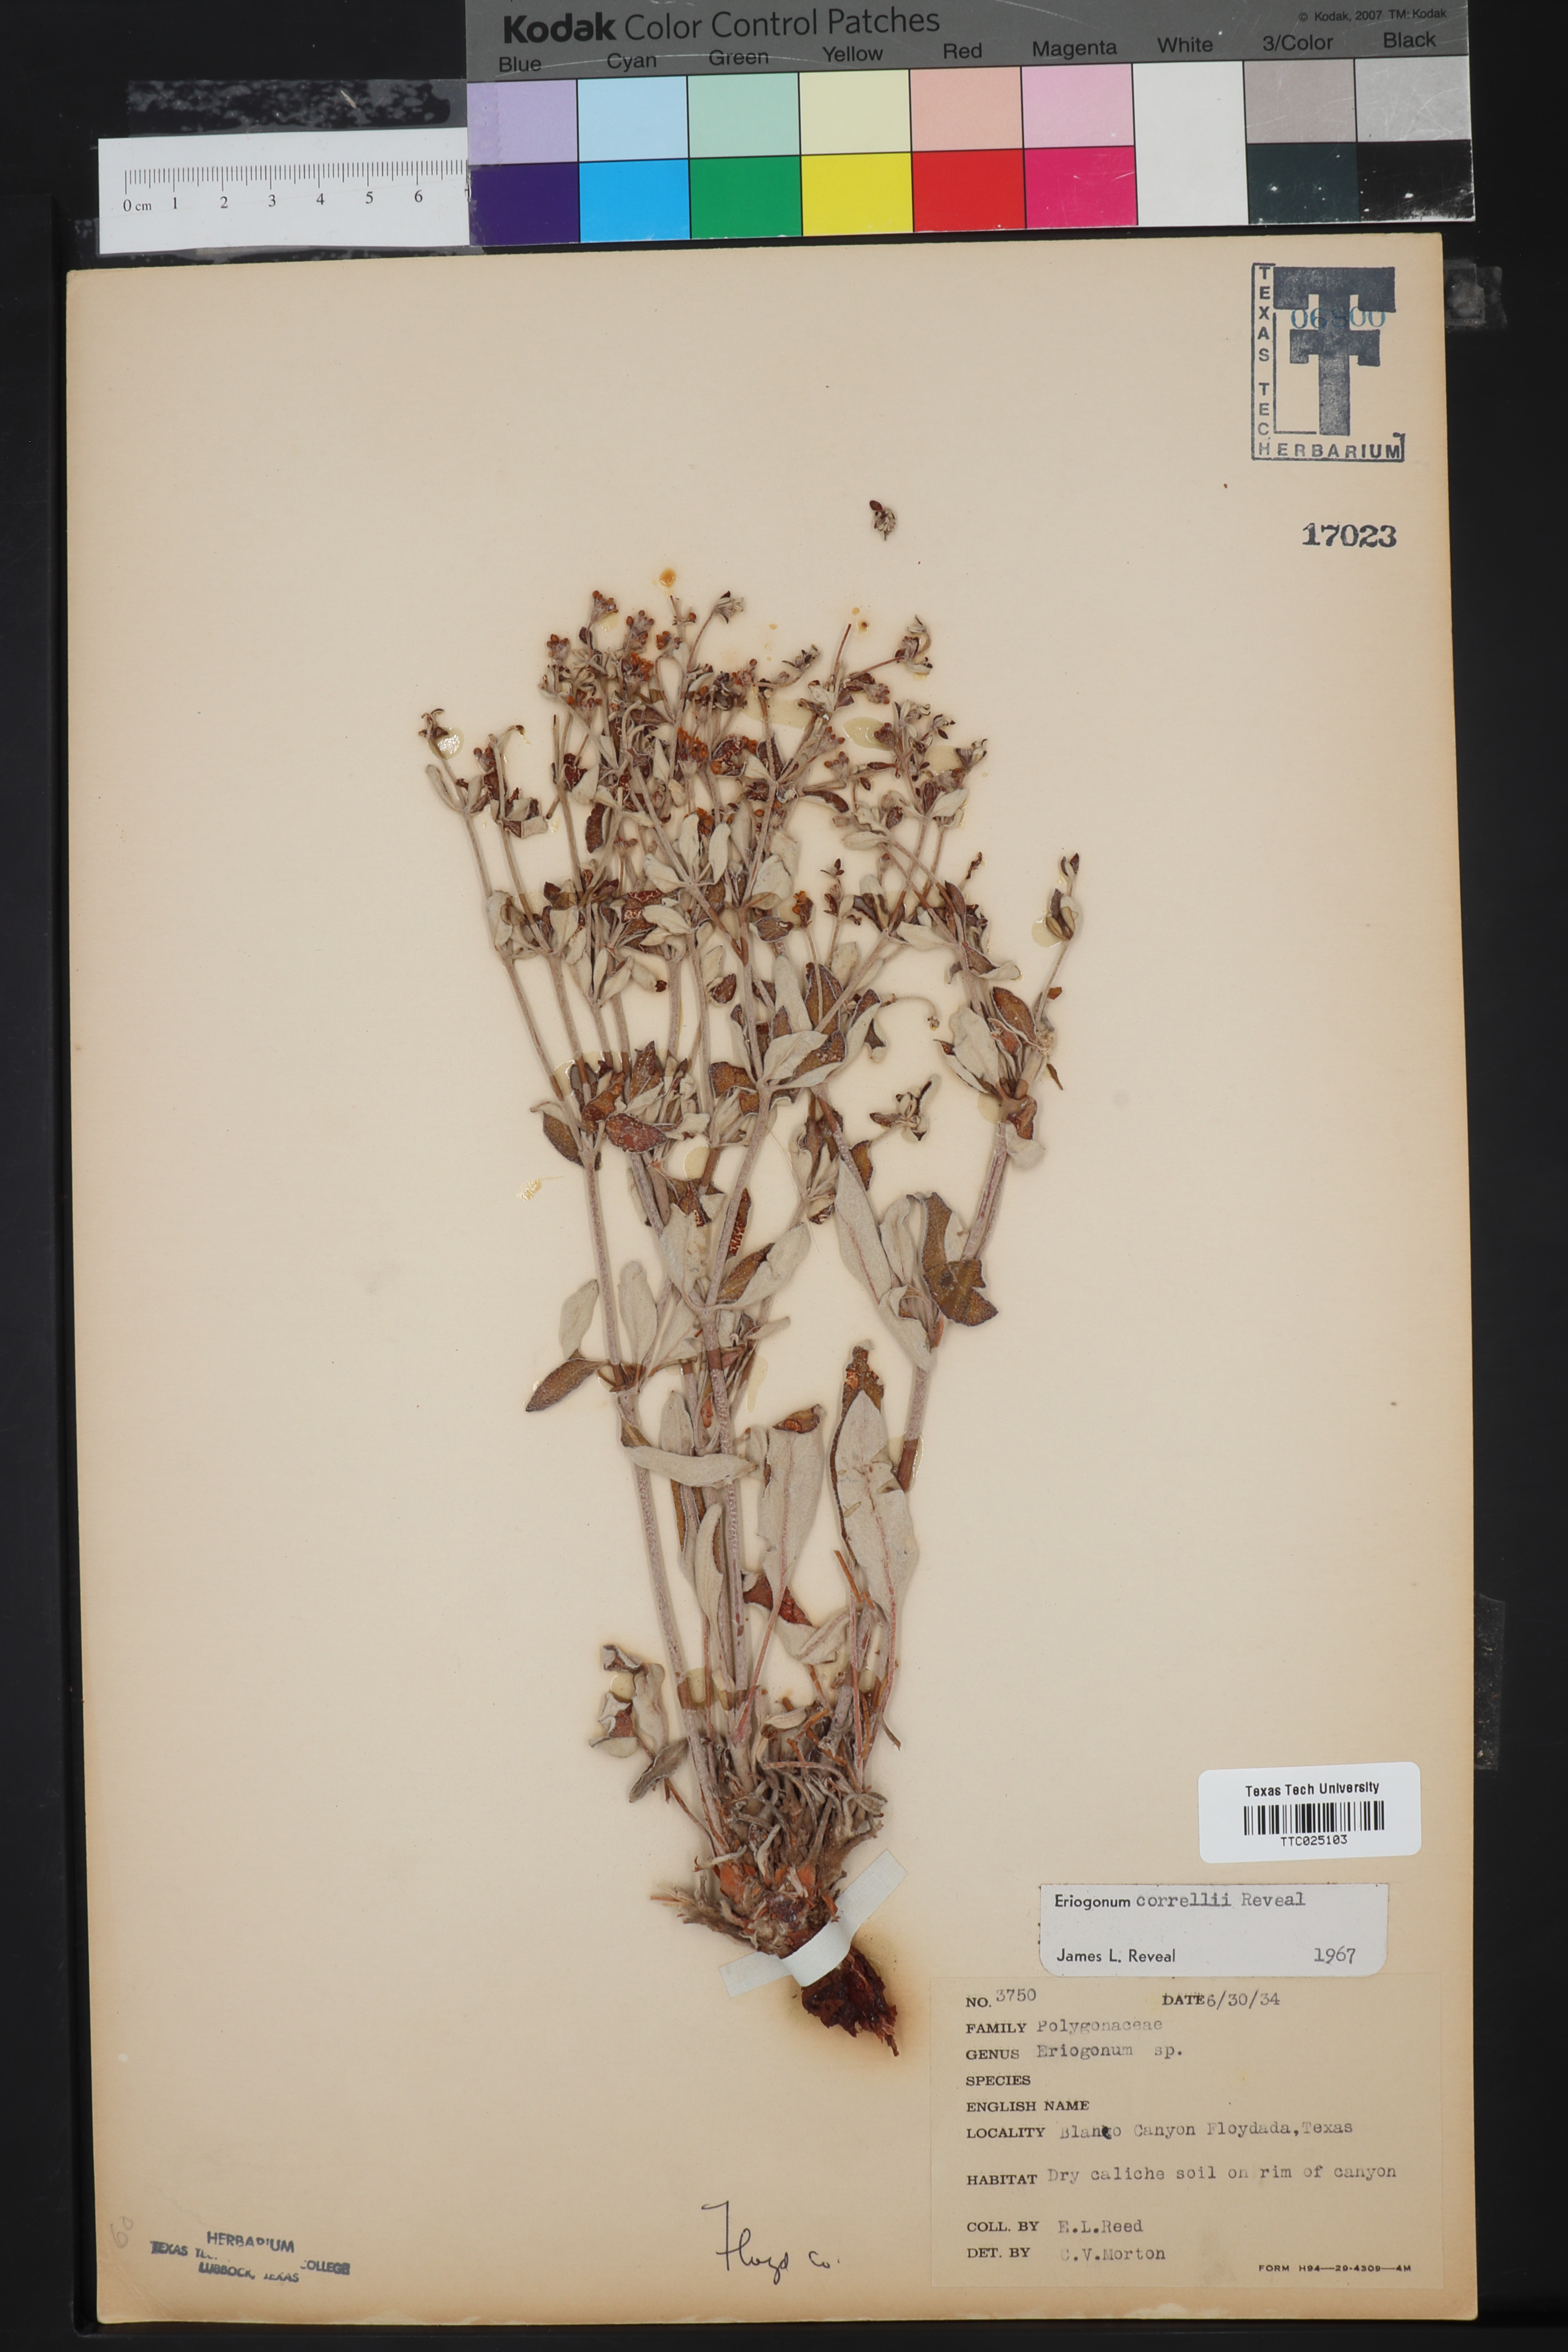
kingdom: Plantae
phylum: Tracheophyta
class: Magnoliopsida
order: Caryophyllales
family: Polygonaceae
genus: Eriogonum
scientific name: Eriogonum correllii
